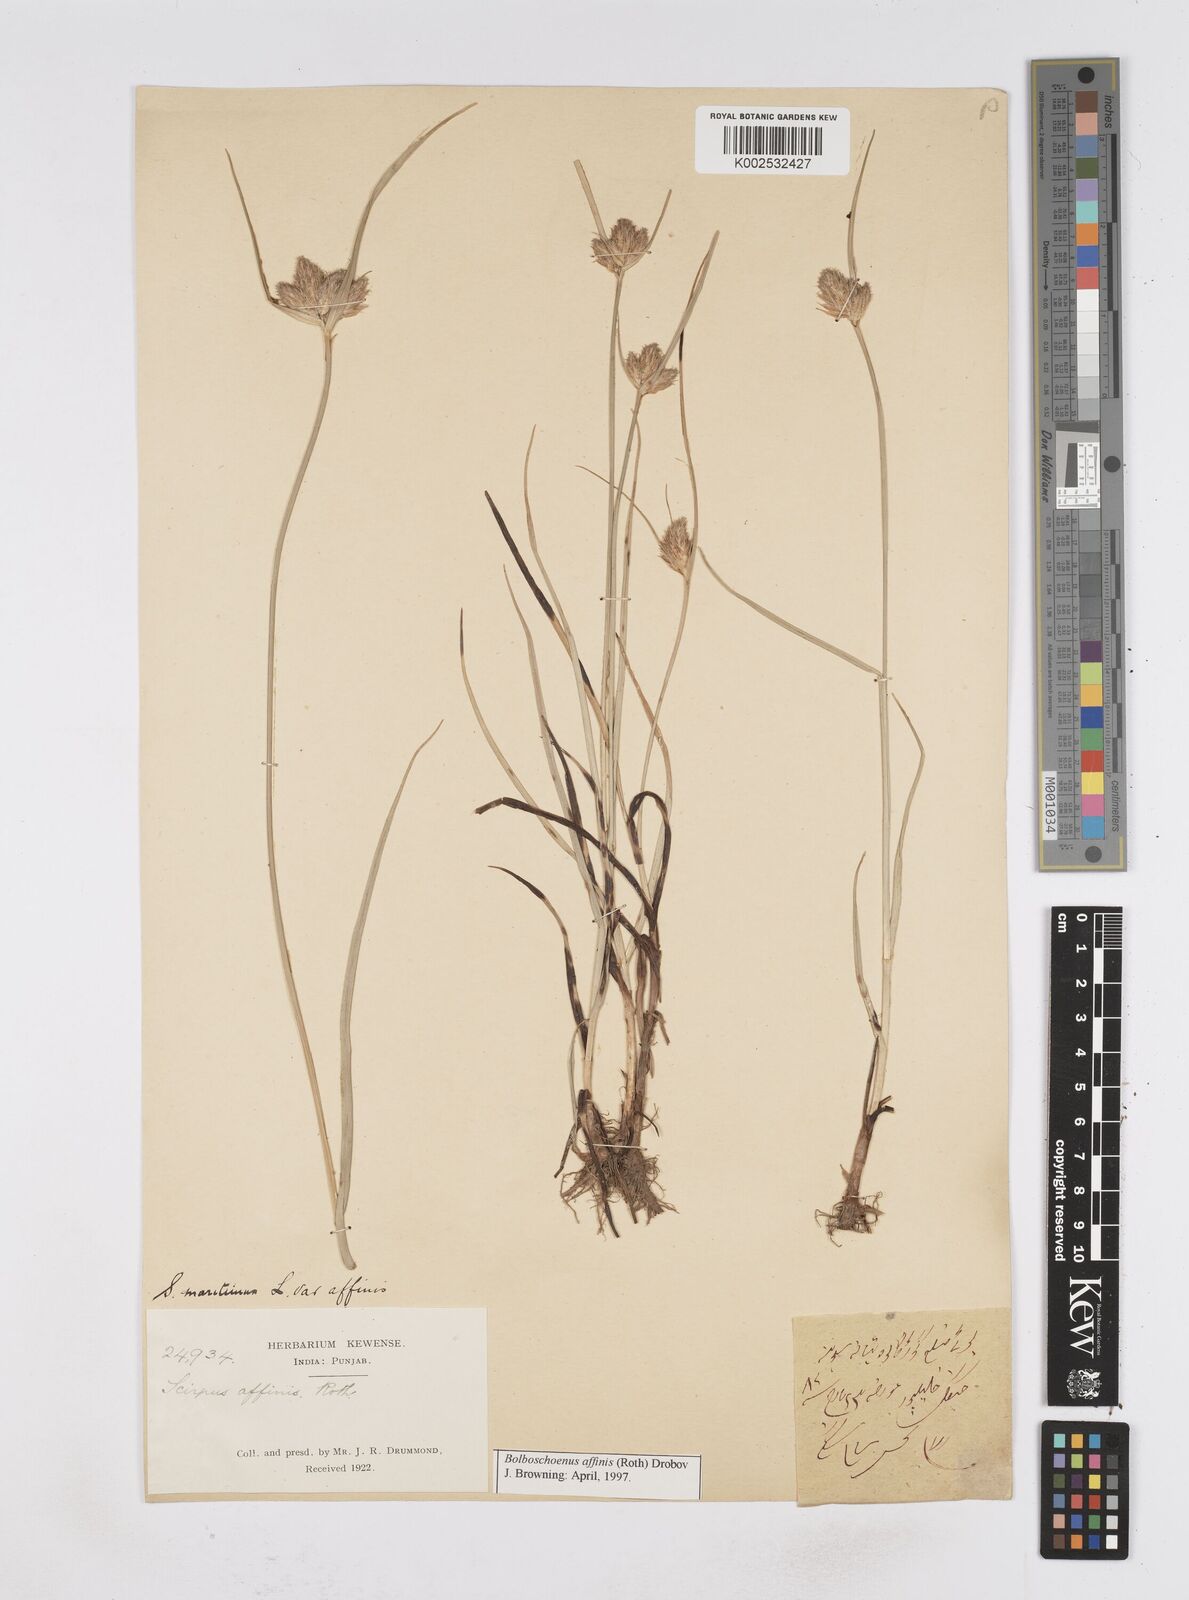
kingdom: Plantae
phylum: Tracheophyta
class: Liliopsida
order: Poales
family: Cyperaceae
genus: Bolboschoenus
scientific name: Bolboschoenus maritimus
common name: Sea club-rush
